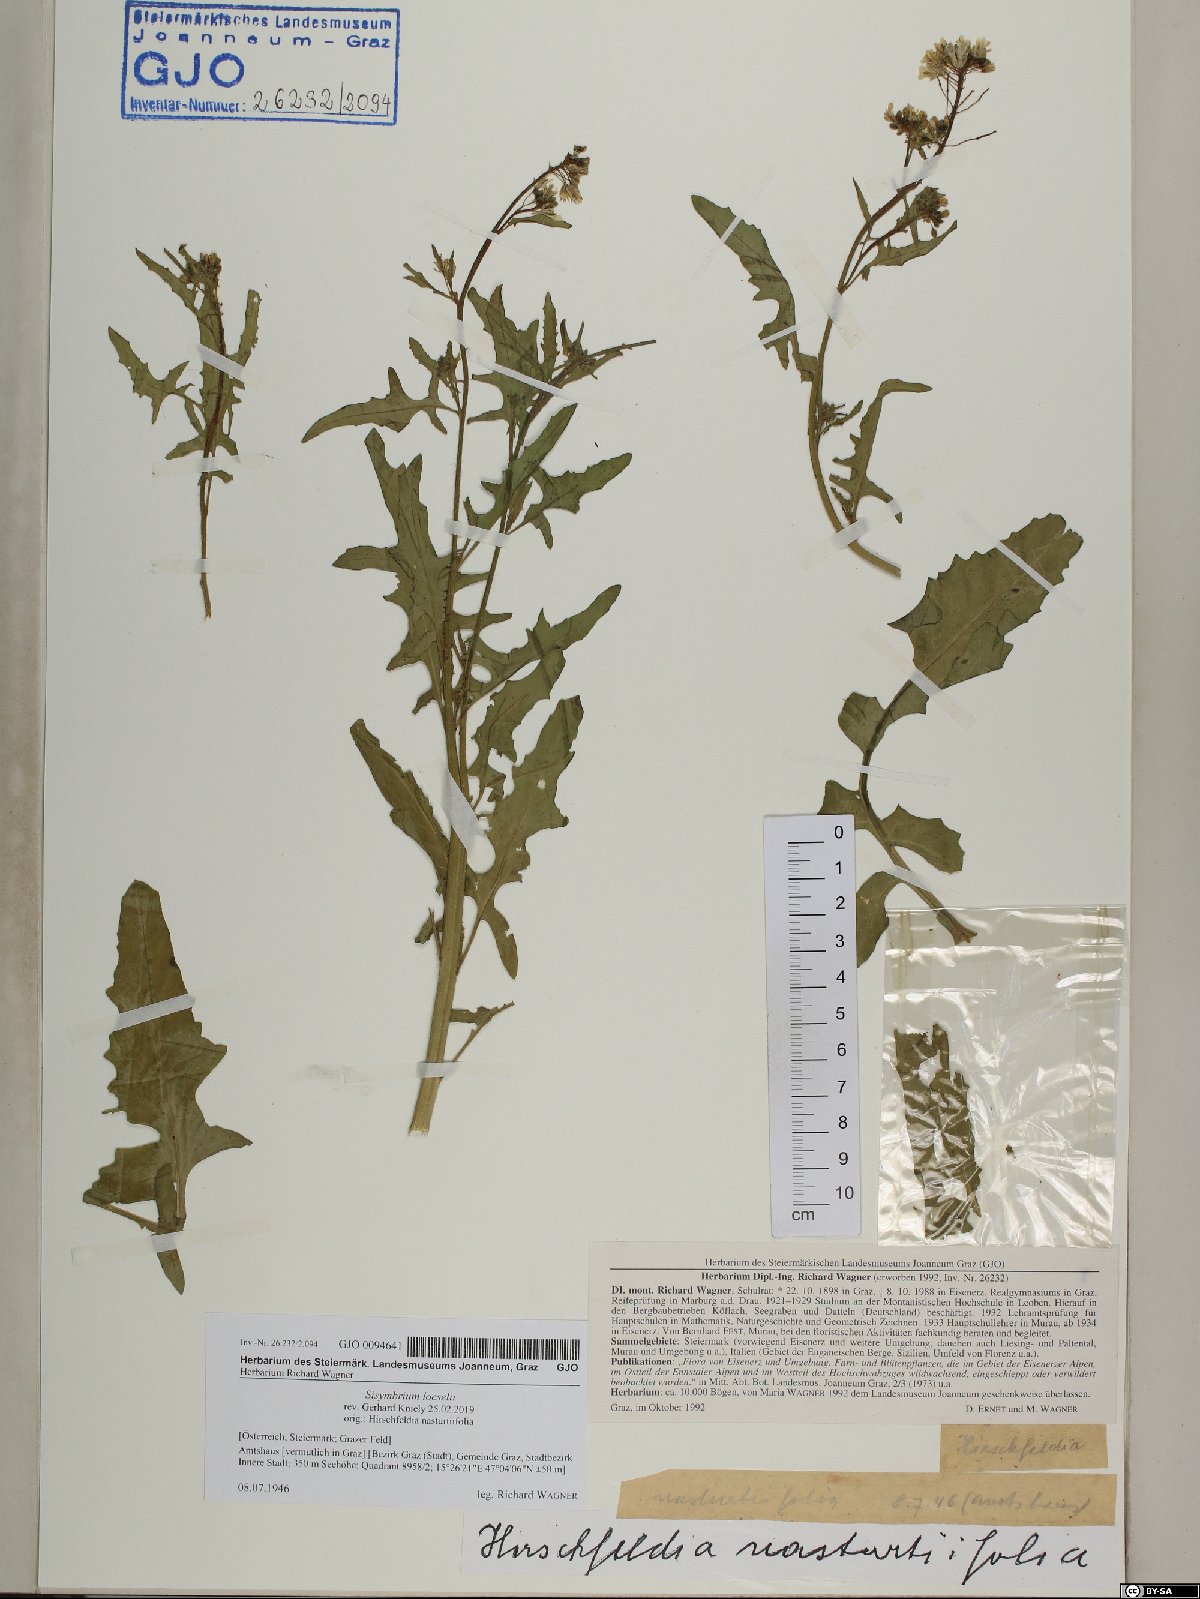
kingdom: Plantae
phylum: Tracheophyta
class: Magnoliopsida
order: Brassicales
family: Brassicaceae
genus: Sisymbrium
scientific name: Sisymbrium loeselii
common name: False london-rocket
